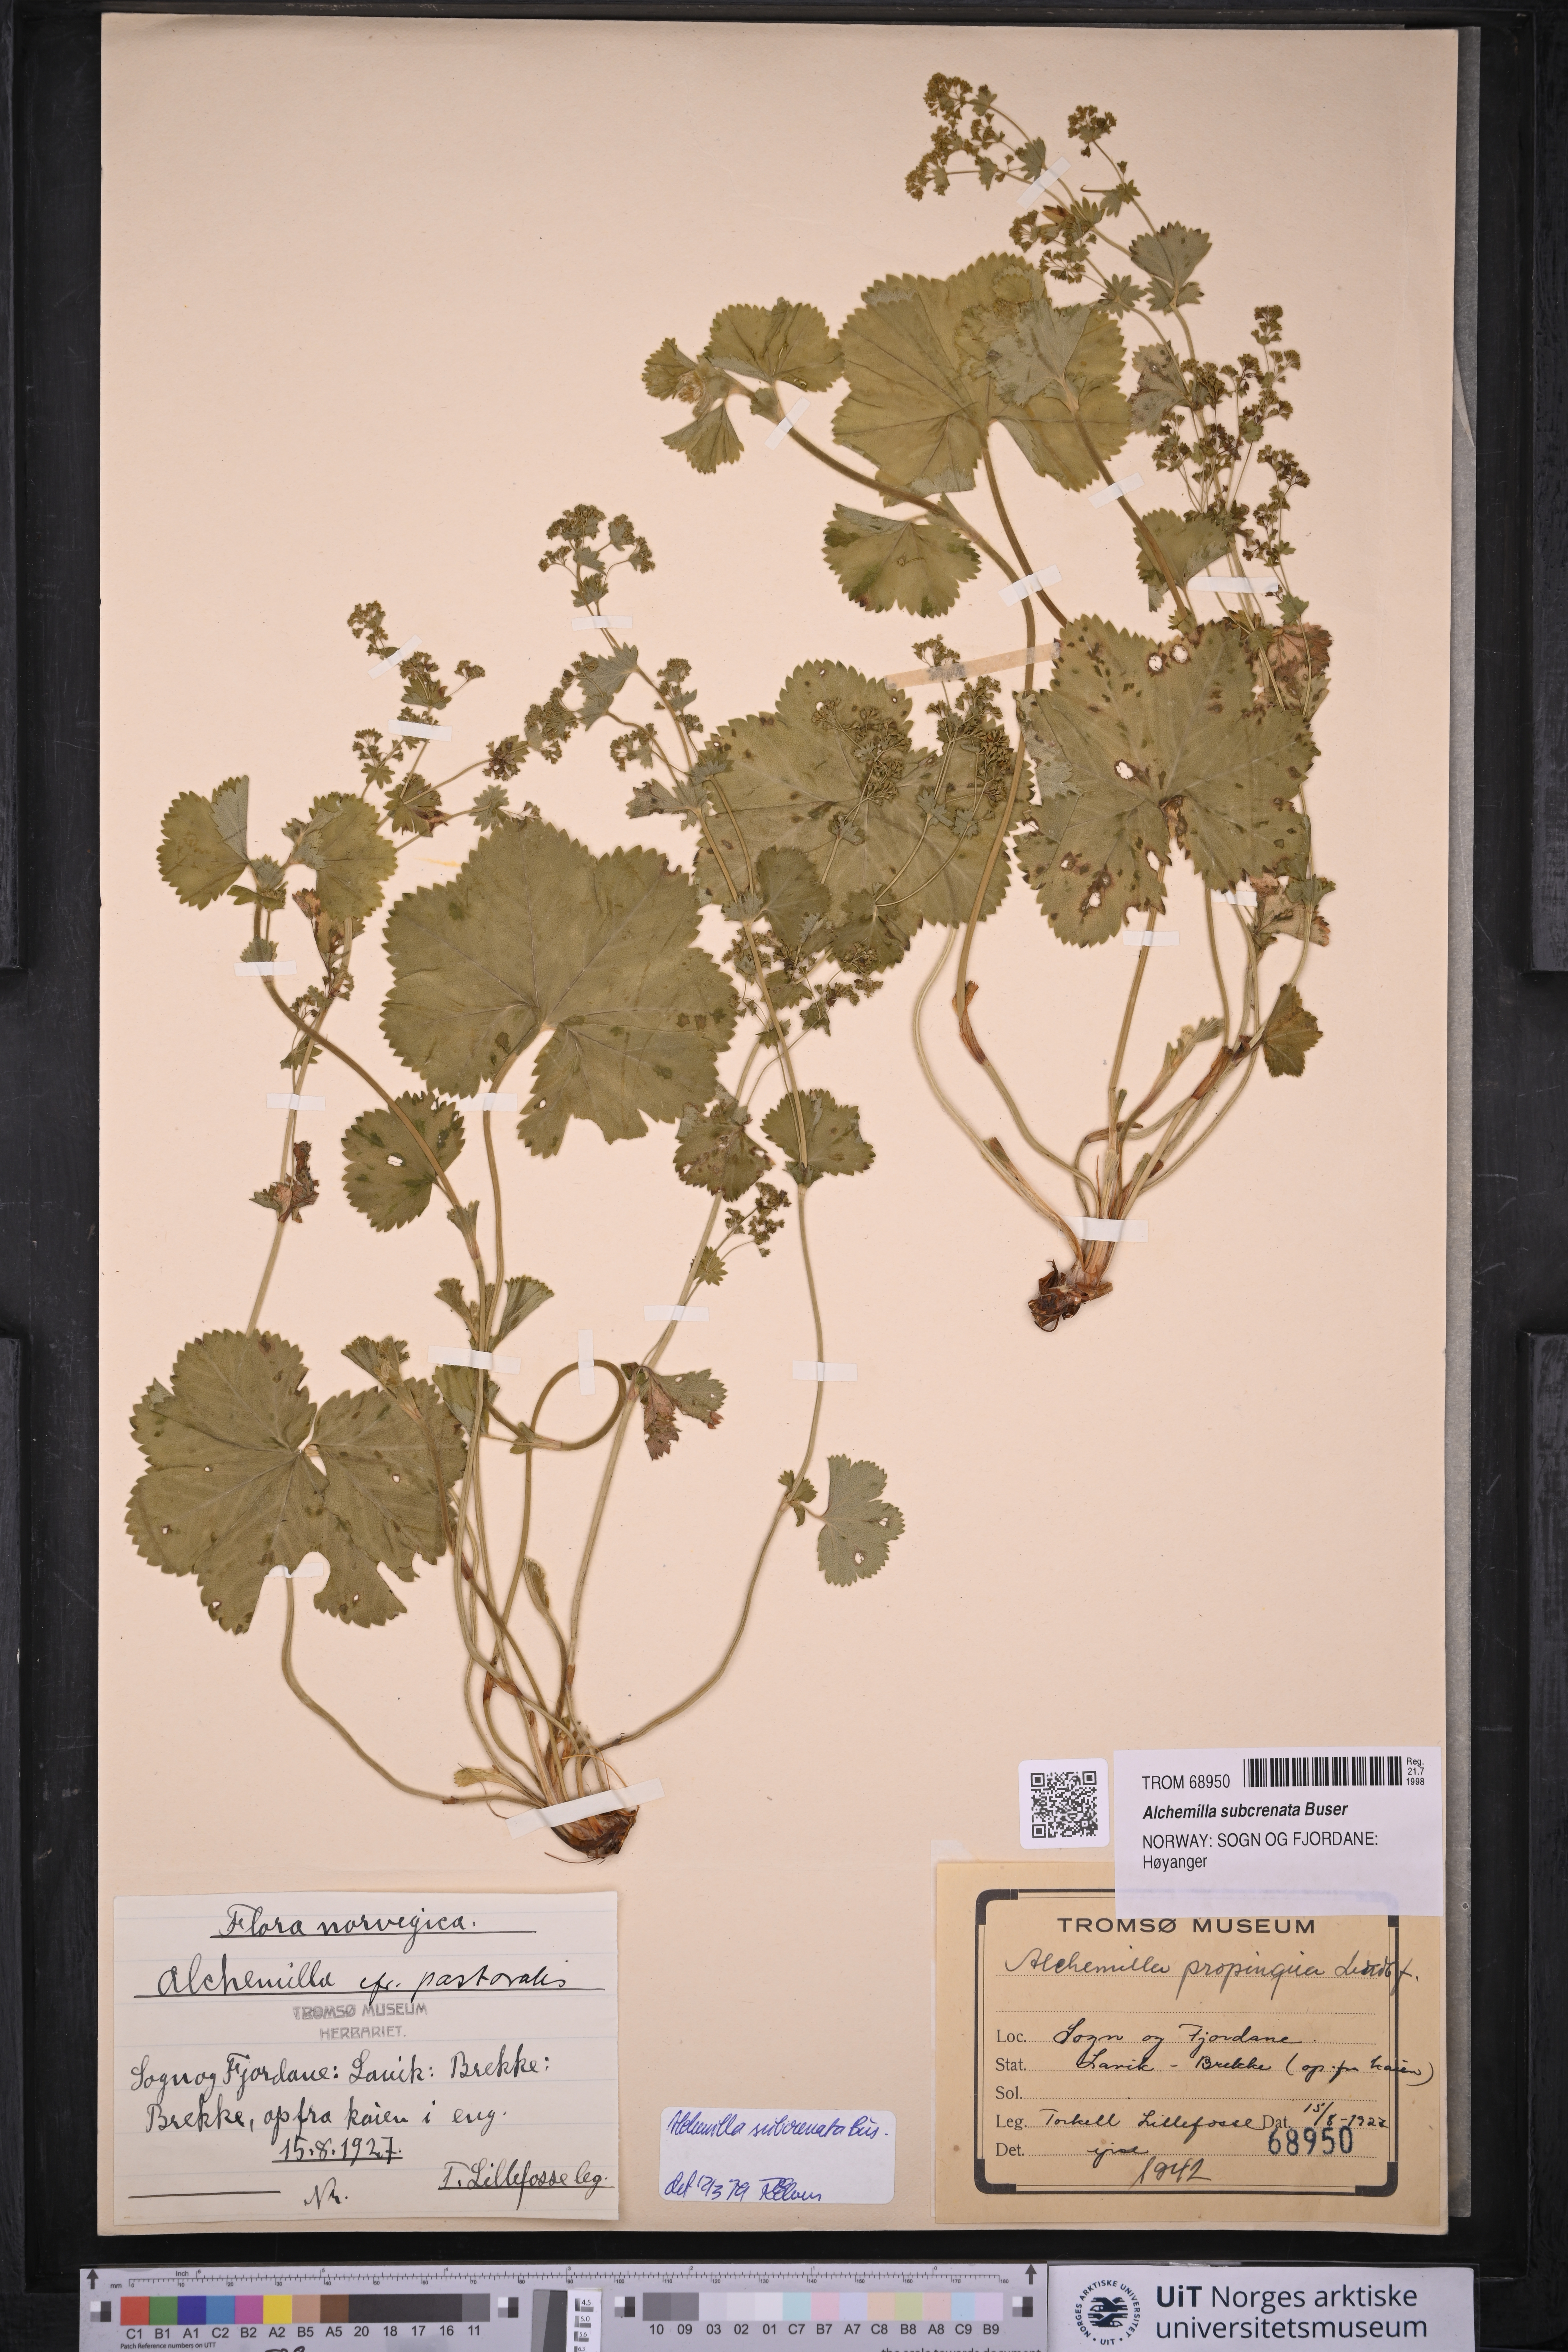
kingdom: Plantae
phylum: Tracheophyta
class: Magnoliopsida
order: Rosales
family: Rosaceae
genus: Alchemilla
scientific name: Alchemilla subcrenata
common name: Broadtooth lady's mantle
